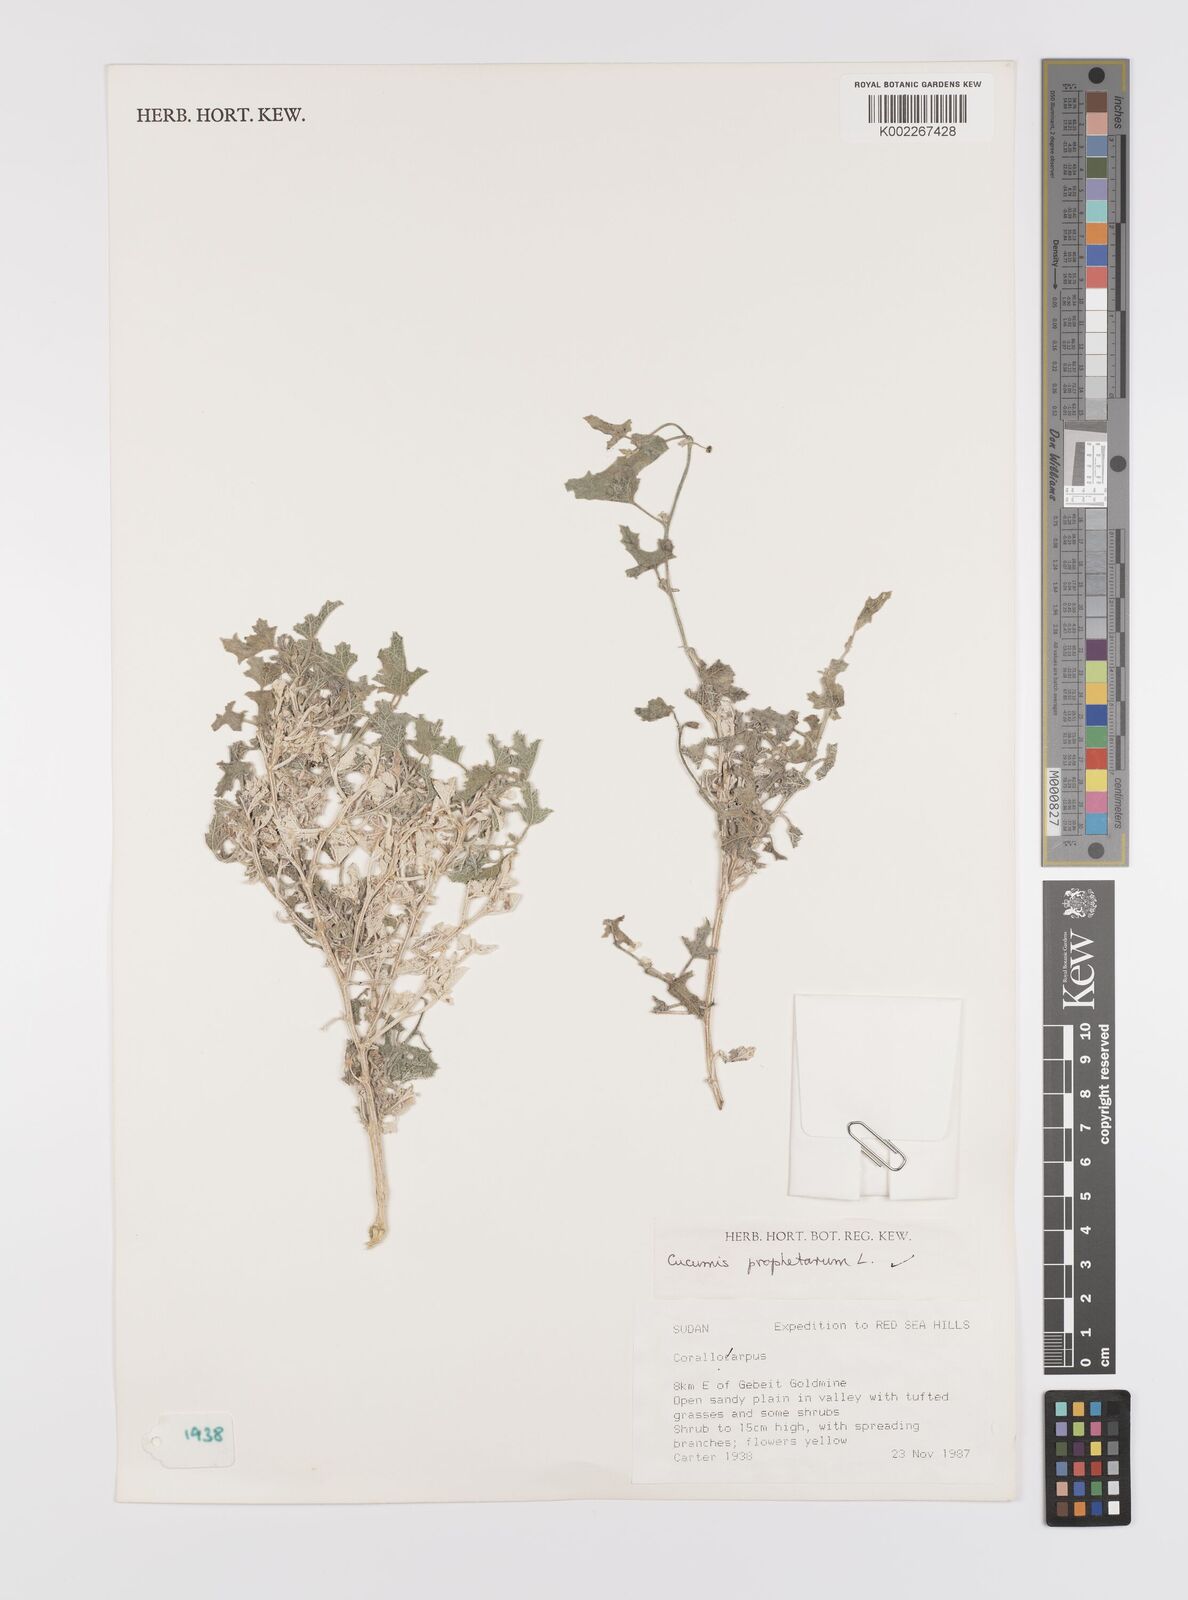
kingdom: Plantae
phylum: Tracheophyta
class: Magnoliopsida
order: Cucurbitales
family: Cucurbitaceae
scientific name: Cucurbitaceae
